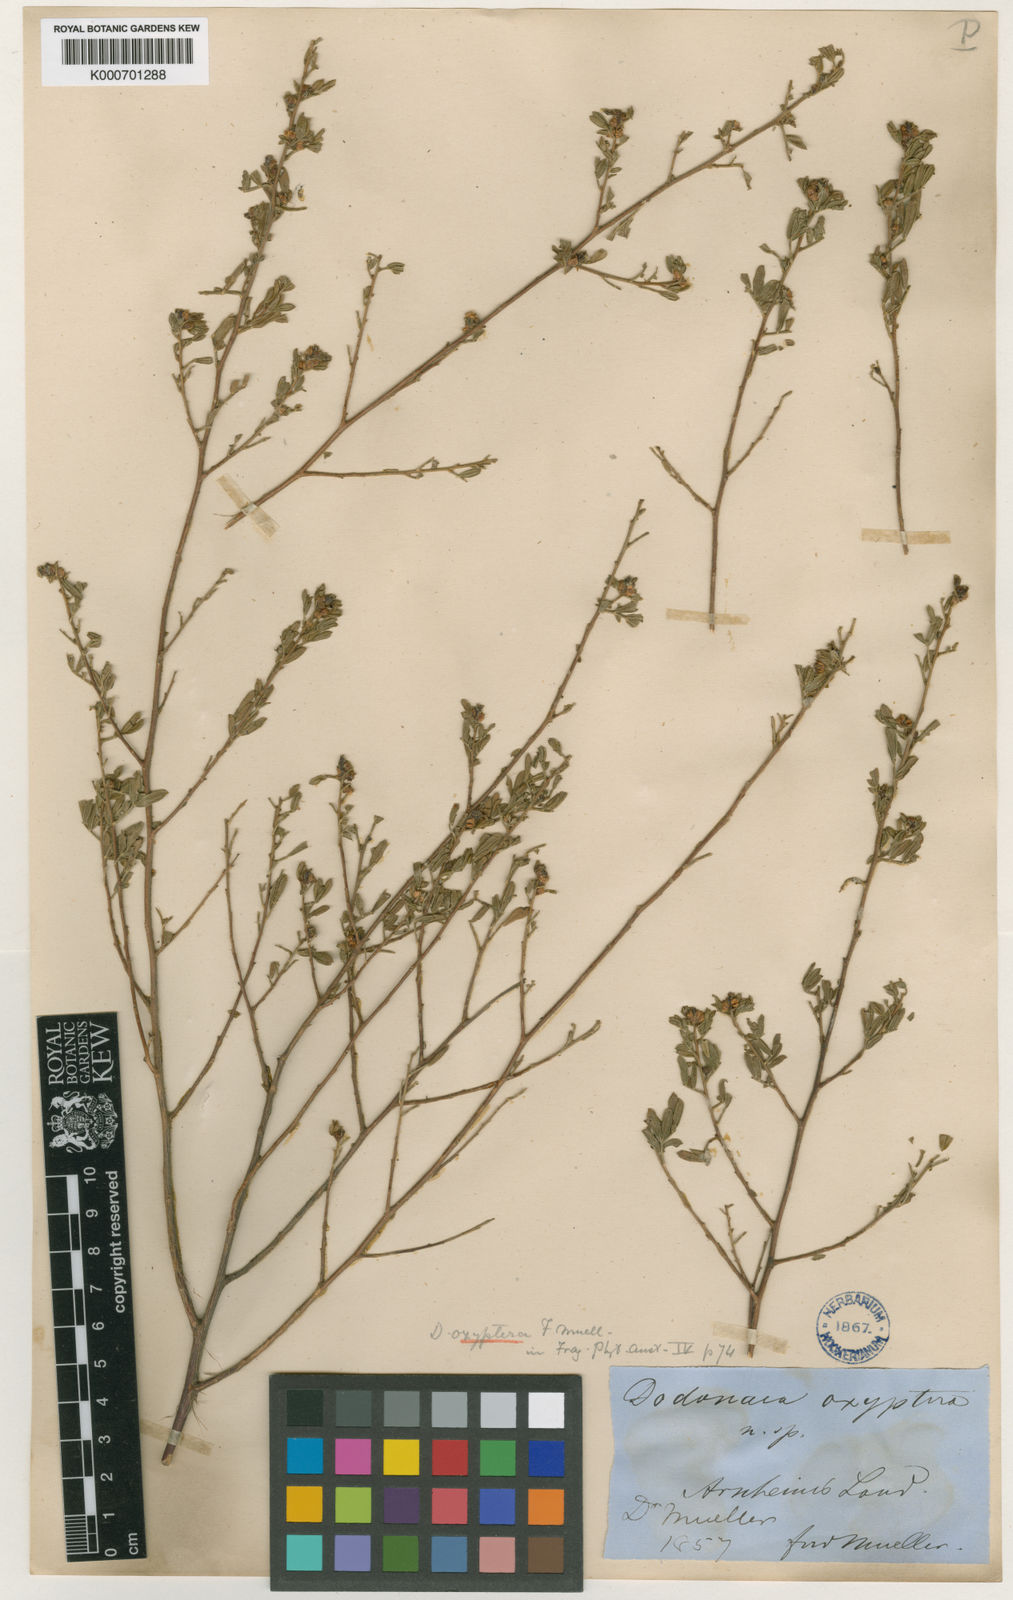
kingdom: Plantae
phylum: Tracheophyta
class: Magnoliopsida
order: Sapindales
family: Sapindaceae
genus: Dodonaea
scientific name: Dodonaea oxyptera
